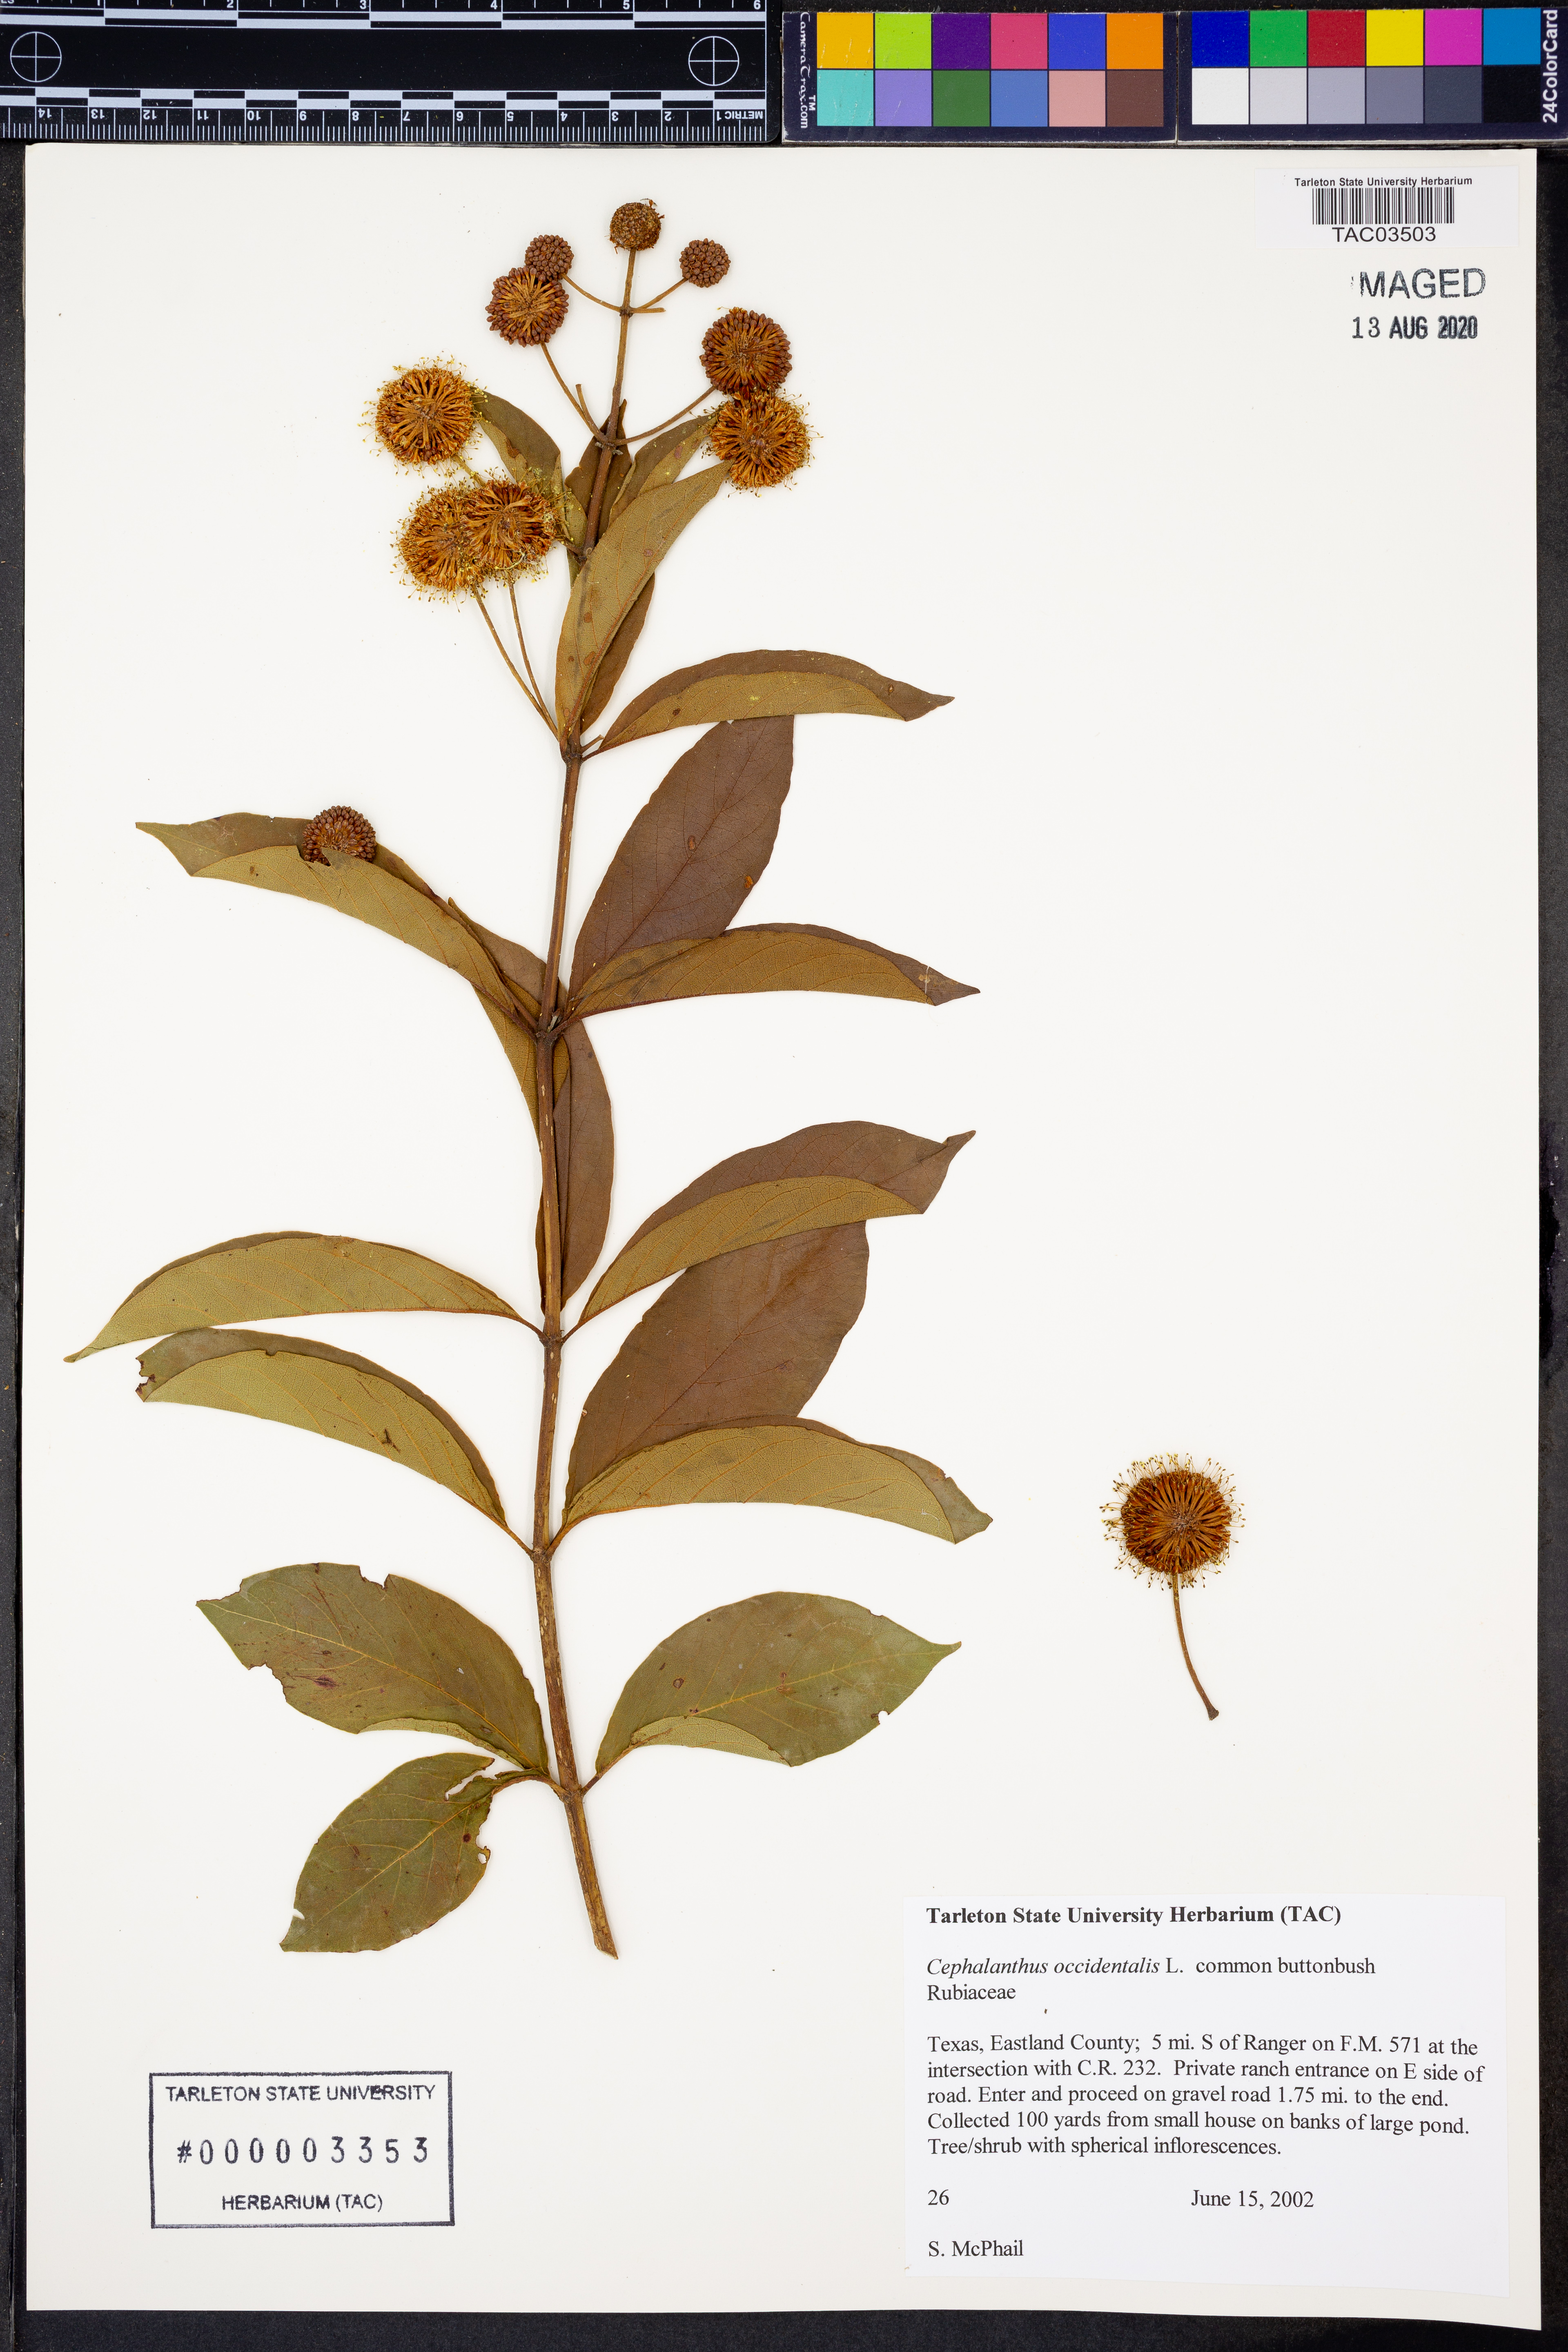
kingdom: Plantae
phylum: Tracheophyta
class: Magnoliopsida
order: Gentianales
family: Rubiaceae
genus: Cephalanthus
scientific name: Cephalanthus occidentalis
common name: Button-willow
